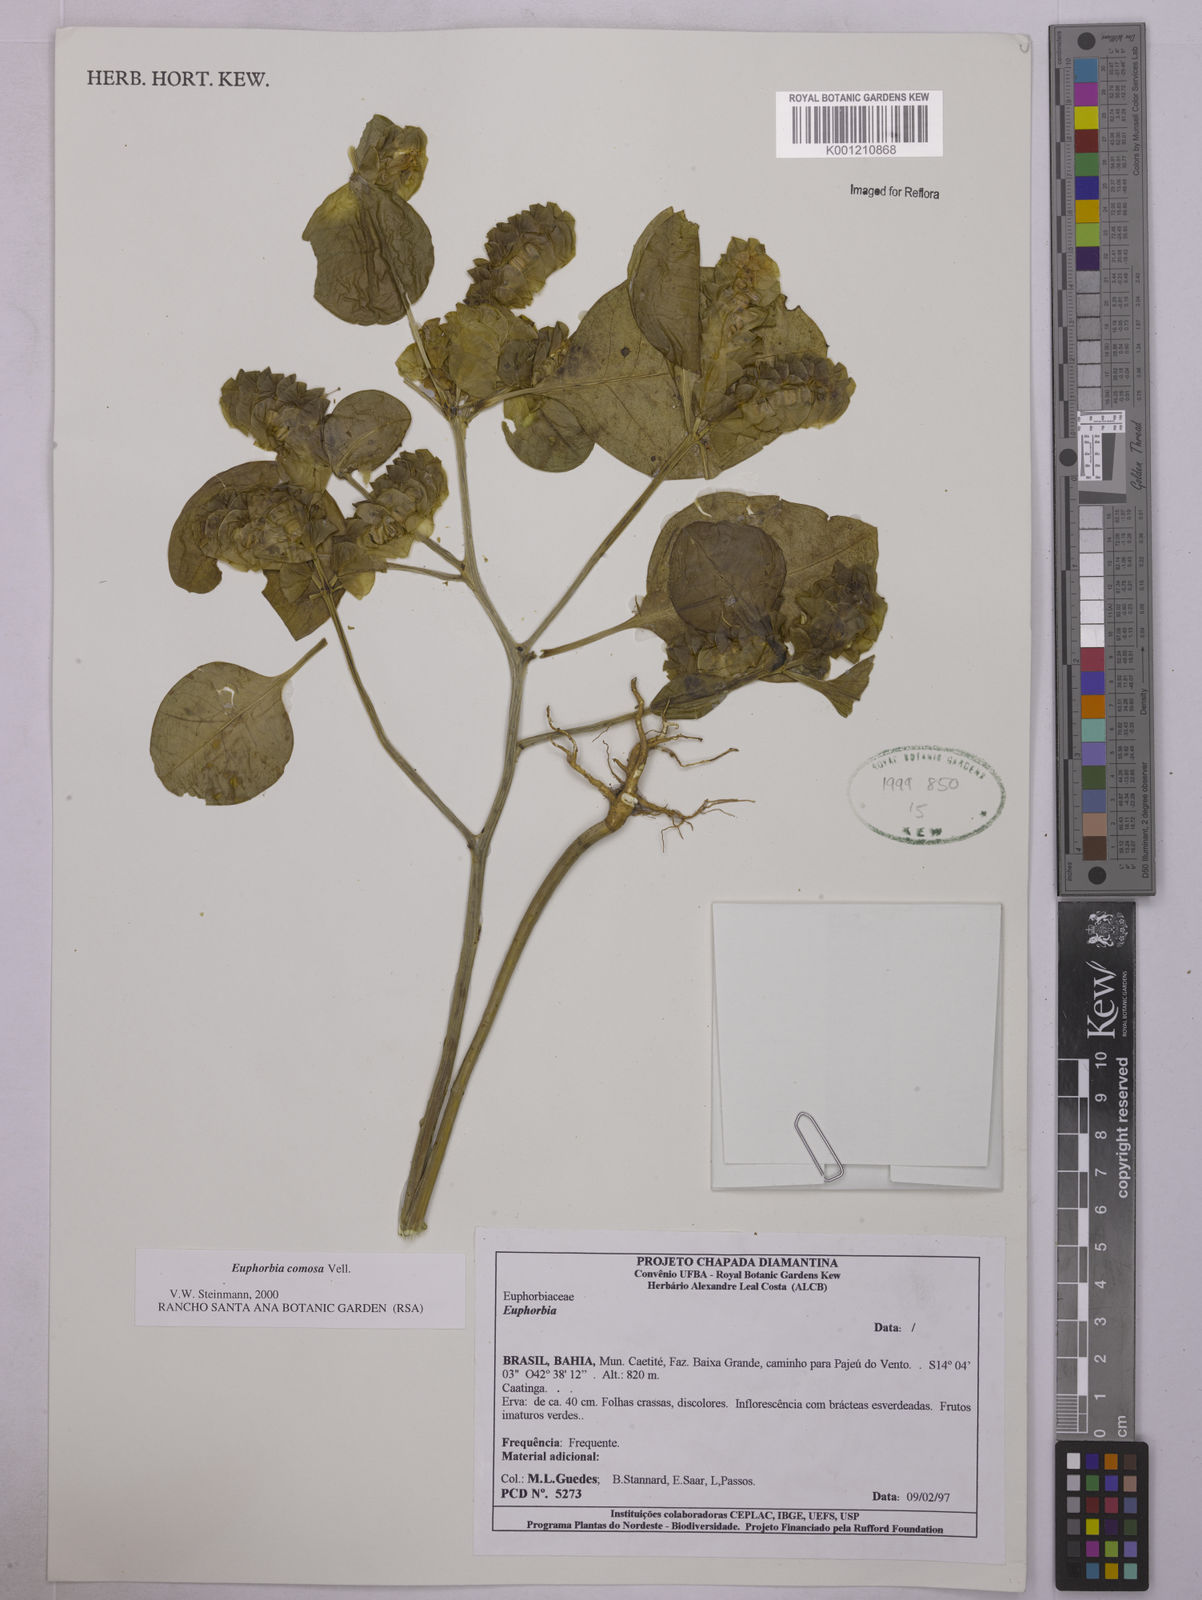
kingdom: Plantae
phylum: Tracheophyta
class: Magnoliopsida
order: Malpighiales
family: Euphorbiaceae
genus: Euphorbia
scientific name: Euphorbia comosa
